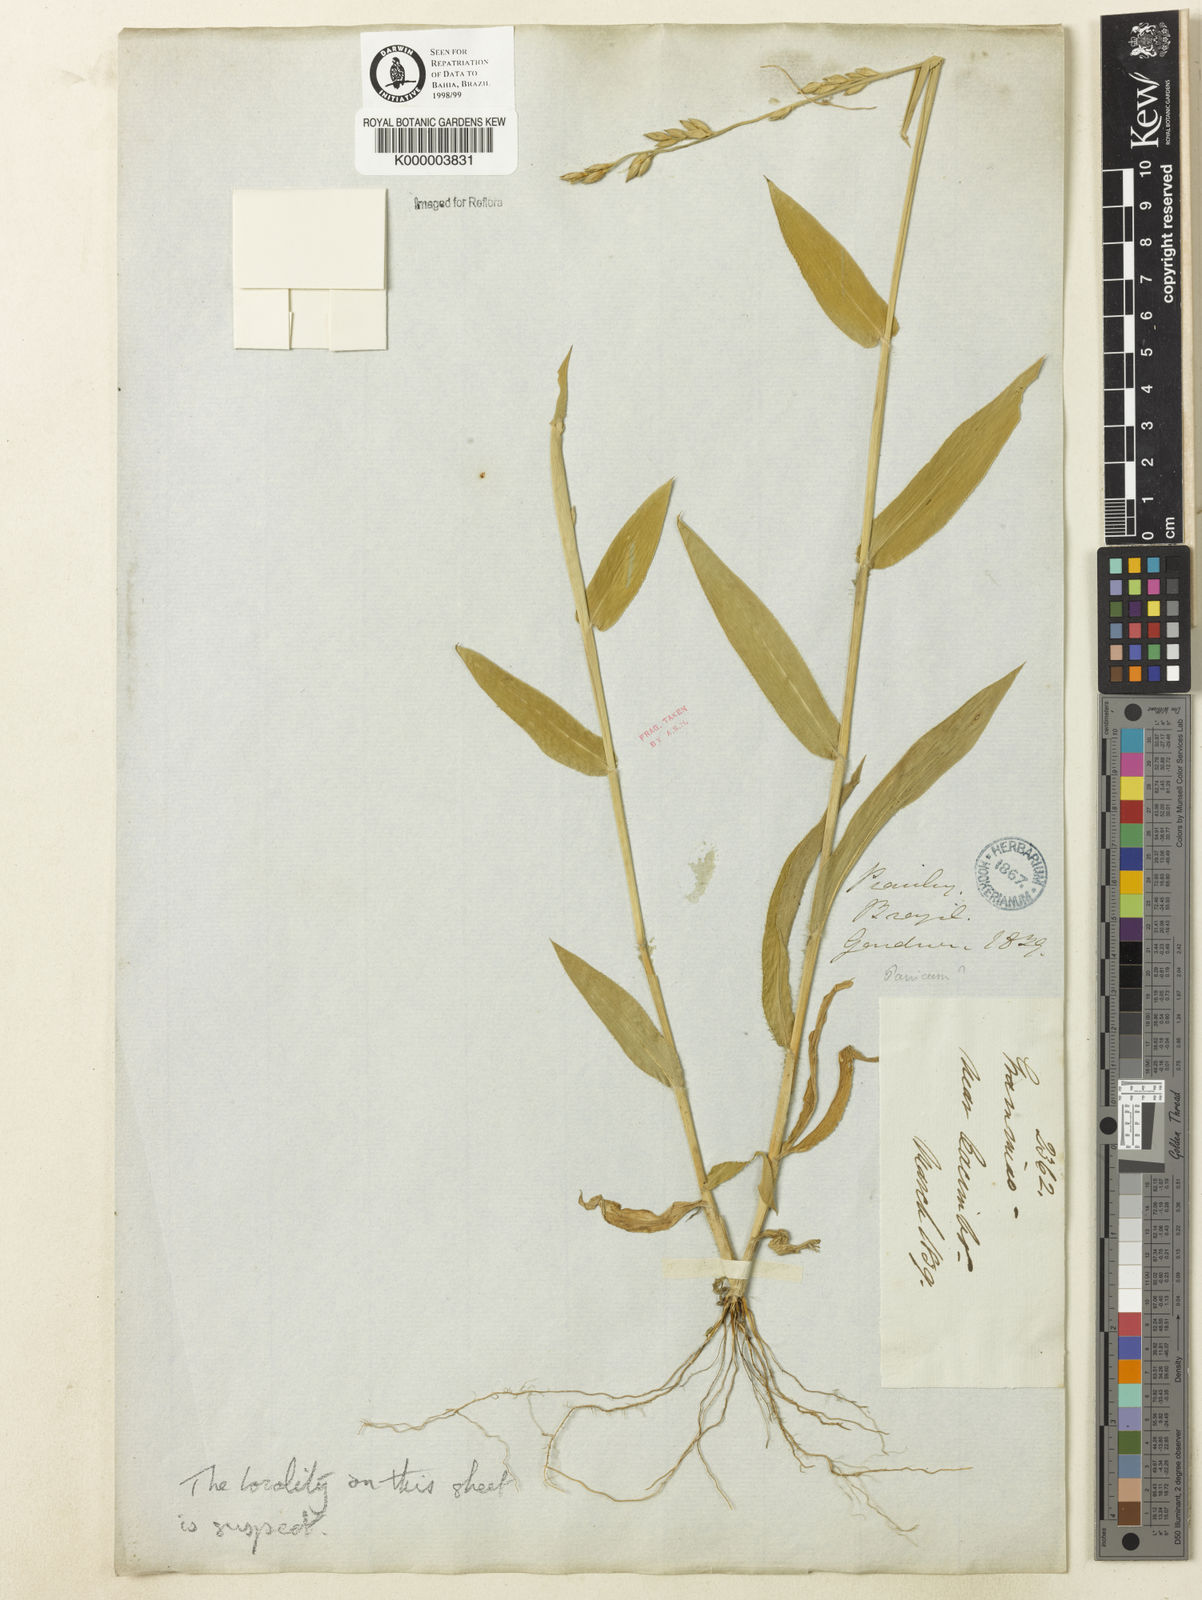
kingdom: Plantae
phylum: Tracheophyta
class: Liliopsida
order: Poales
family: Poaceae
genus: Urochloa
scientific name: Urochloa paucispicata
